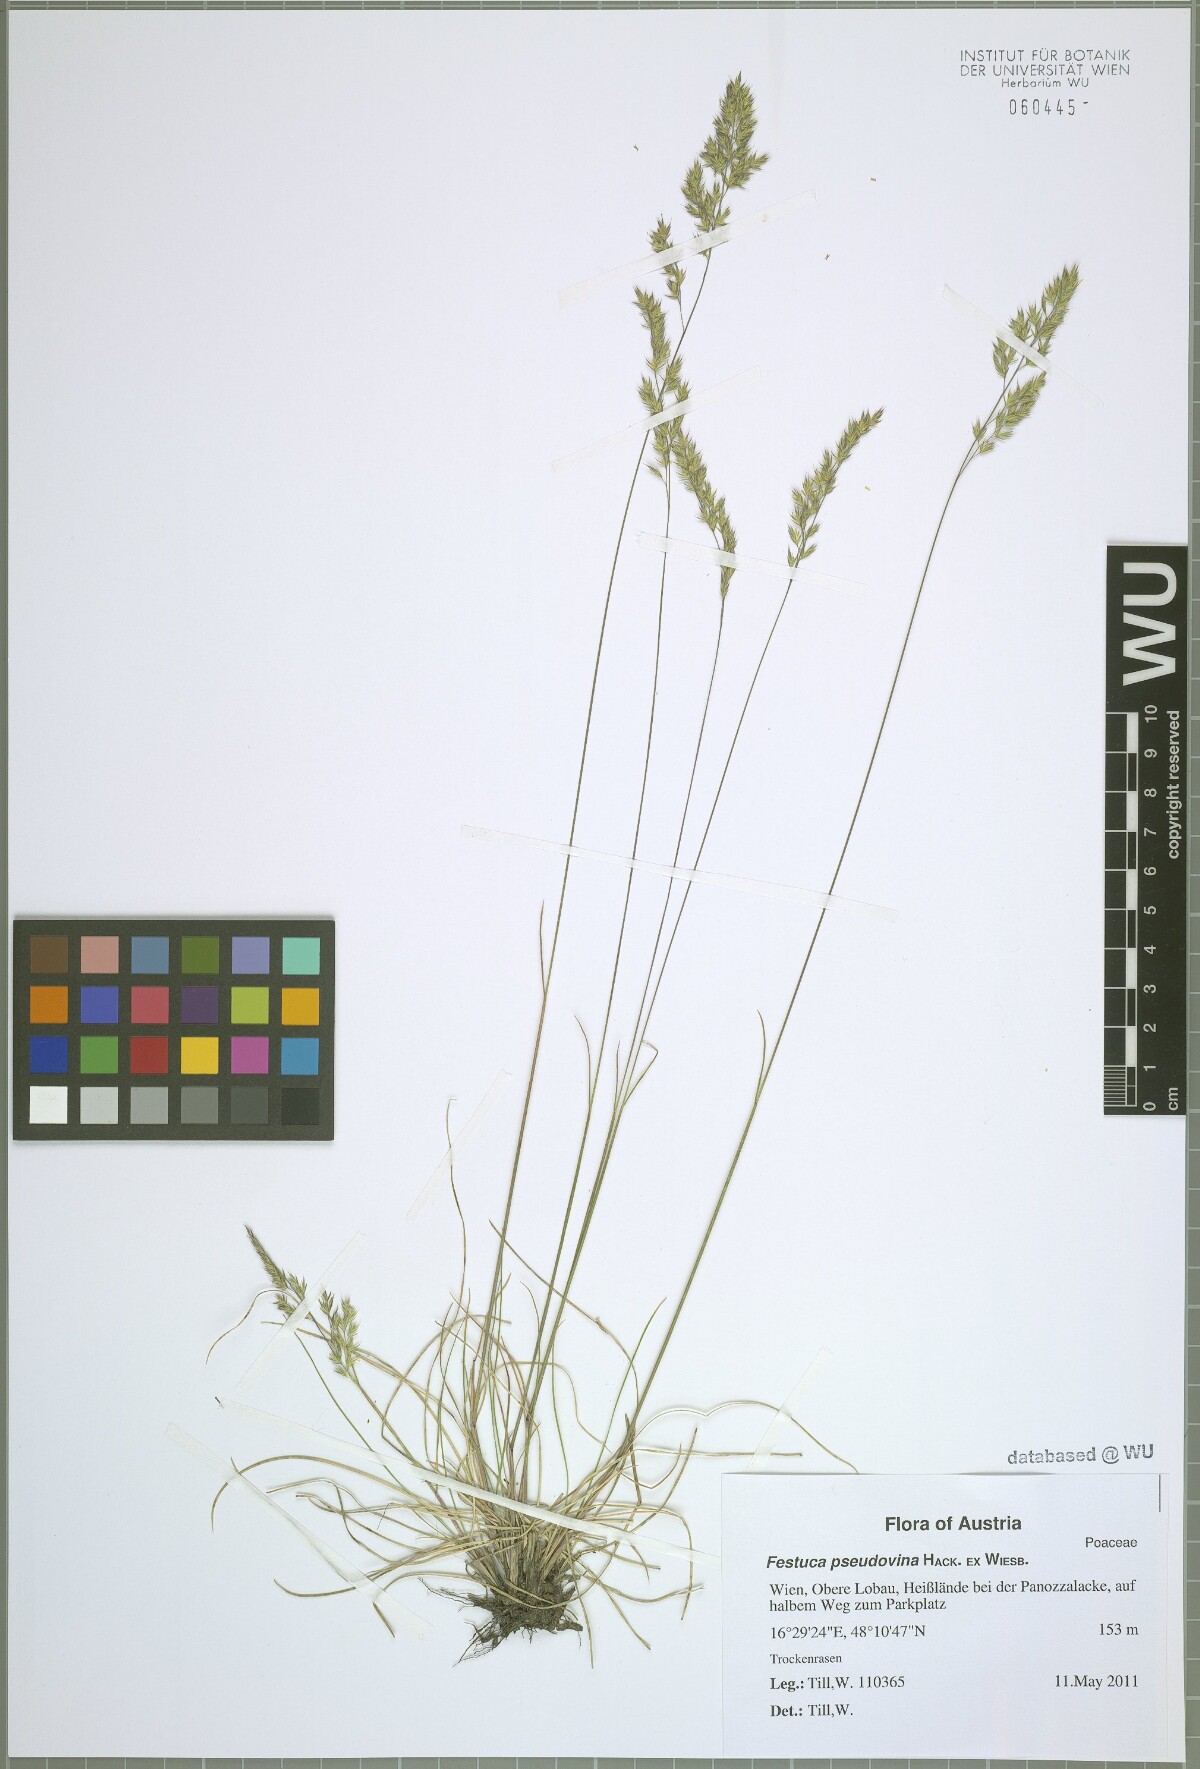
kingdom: Plantae
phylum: Tracheophyta
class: Liliopsida
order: Poales
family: Poaceae
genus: Festuca
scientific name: Festuca pulchra
